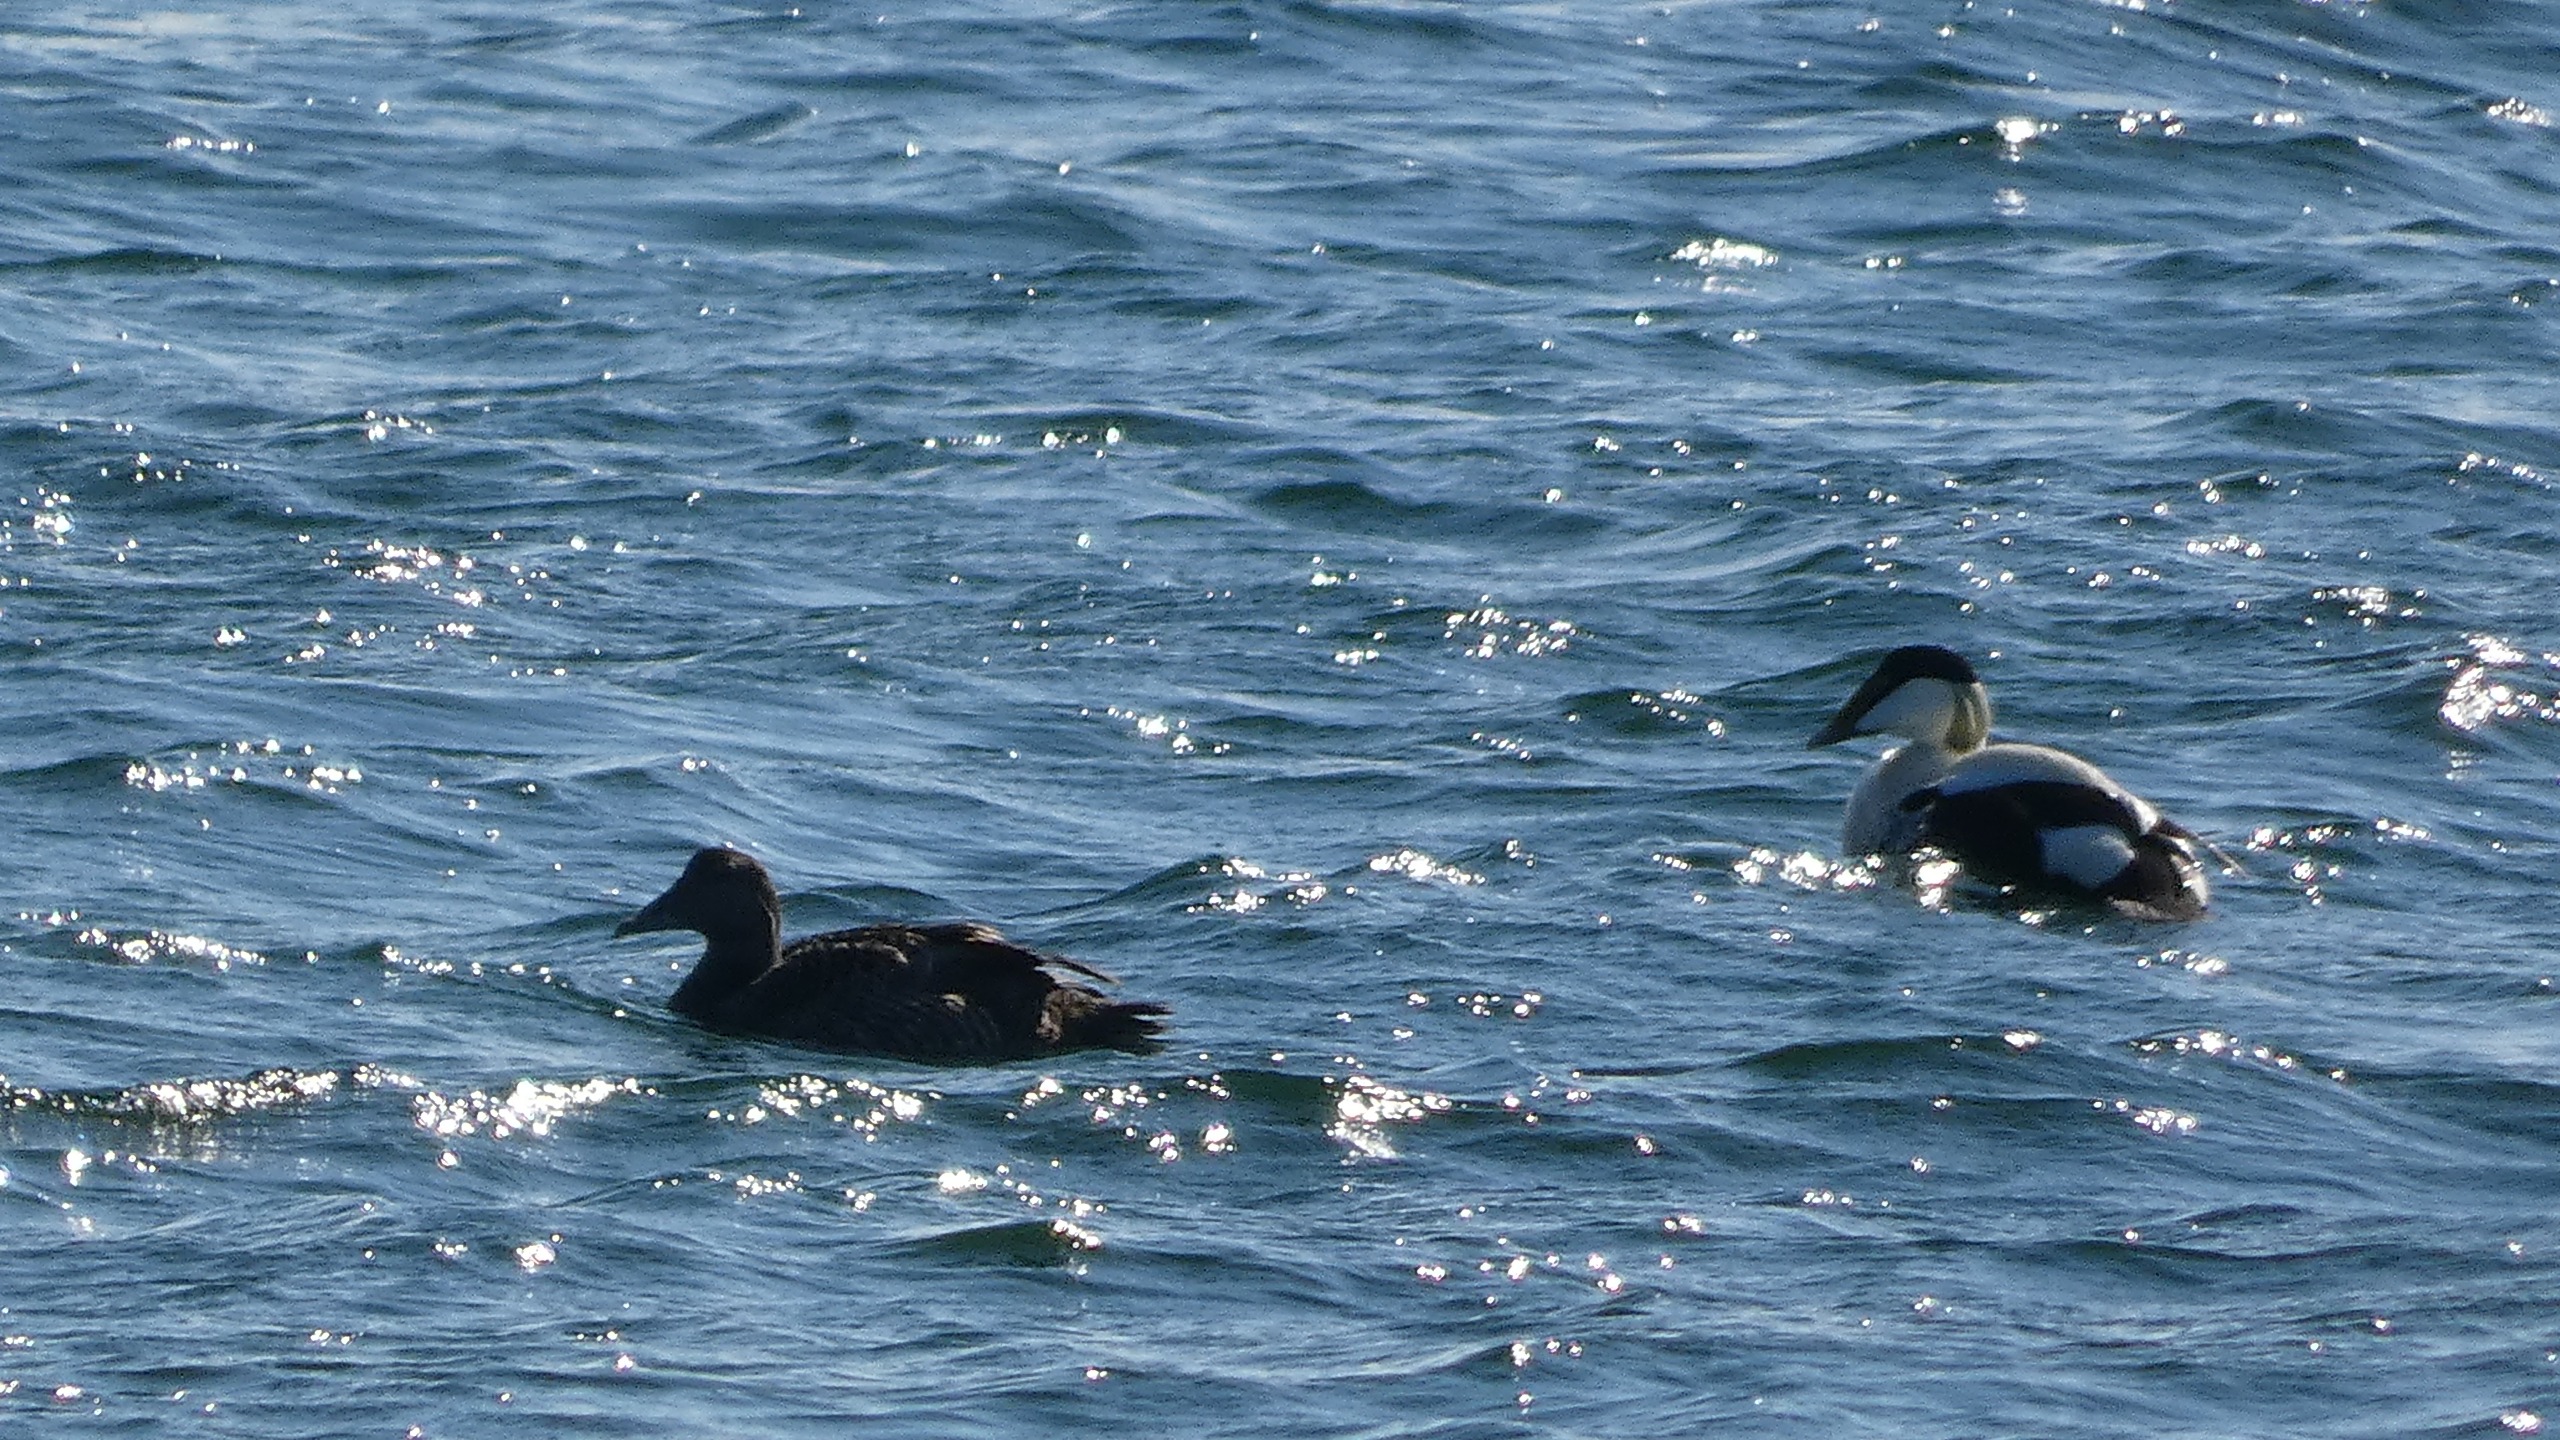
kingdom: Animalia
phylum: Chordata
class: Aves
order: Anseriformes
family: Anatidae
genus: Somateria
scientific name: Somateria mollissima
